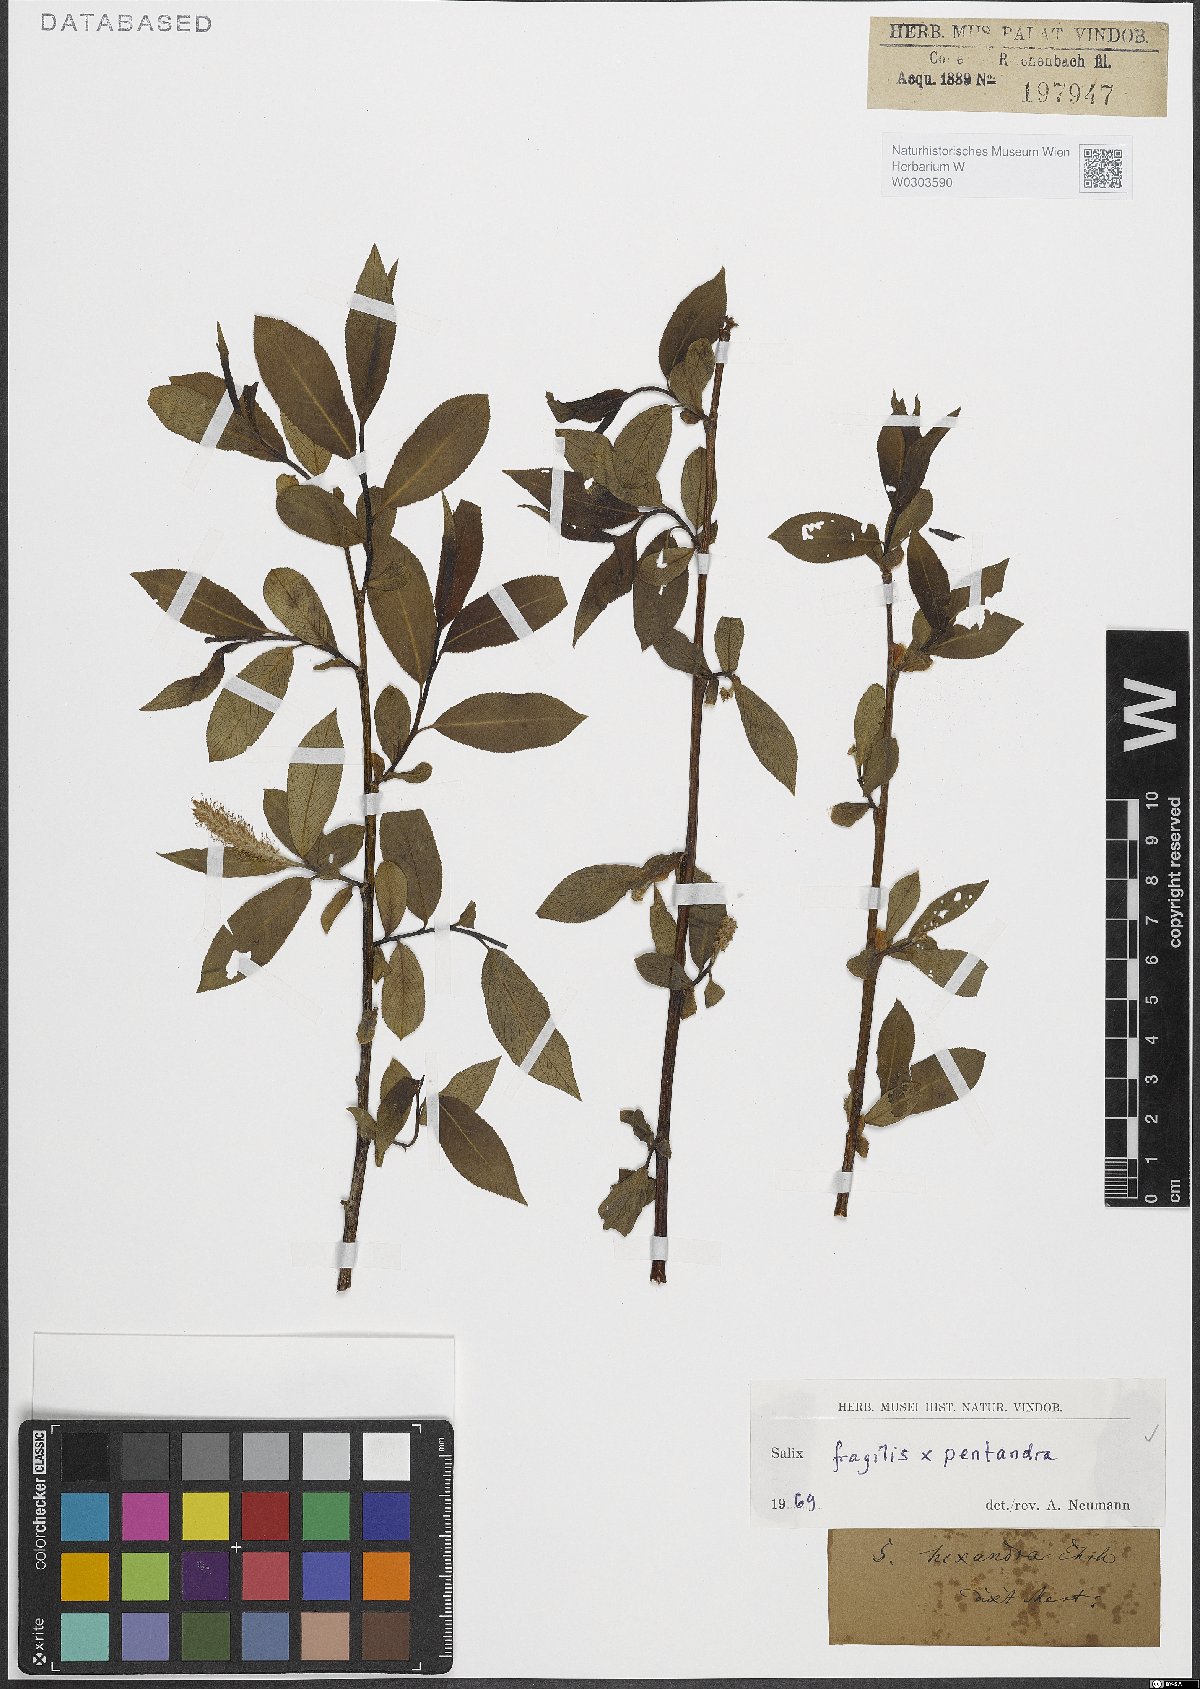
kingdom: Plantae
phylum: Tracheophyta
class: Magnoliopsida
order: Malpighiales
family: Salicaceae
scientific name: Salicaceae
